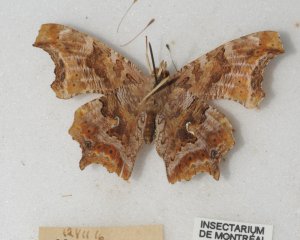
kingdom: Animalia
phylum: Arthropoda
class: Insecta
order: Lepidoptera
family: Nymphalidae
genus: Polygonia
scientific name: Polygonia comma
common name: Eastern Comma
